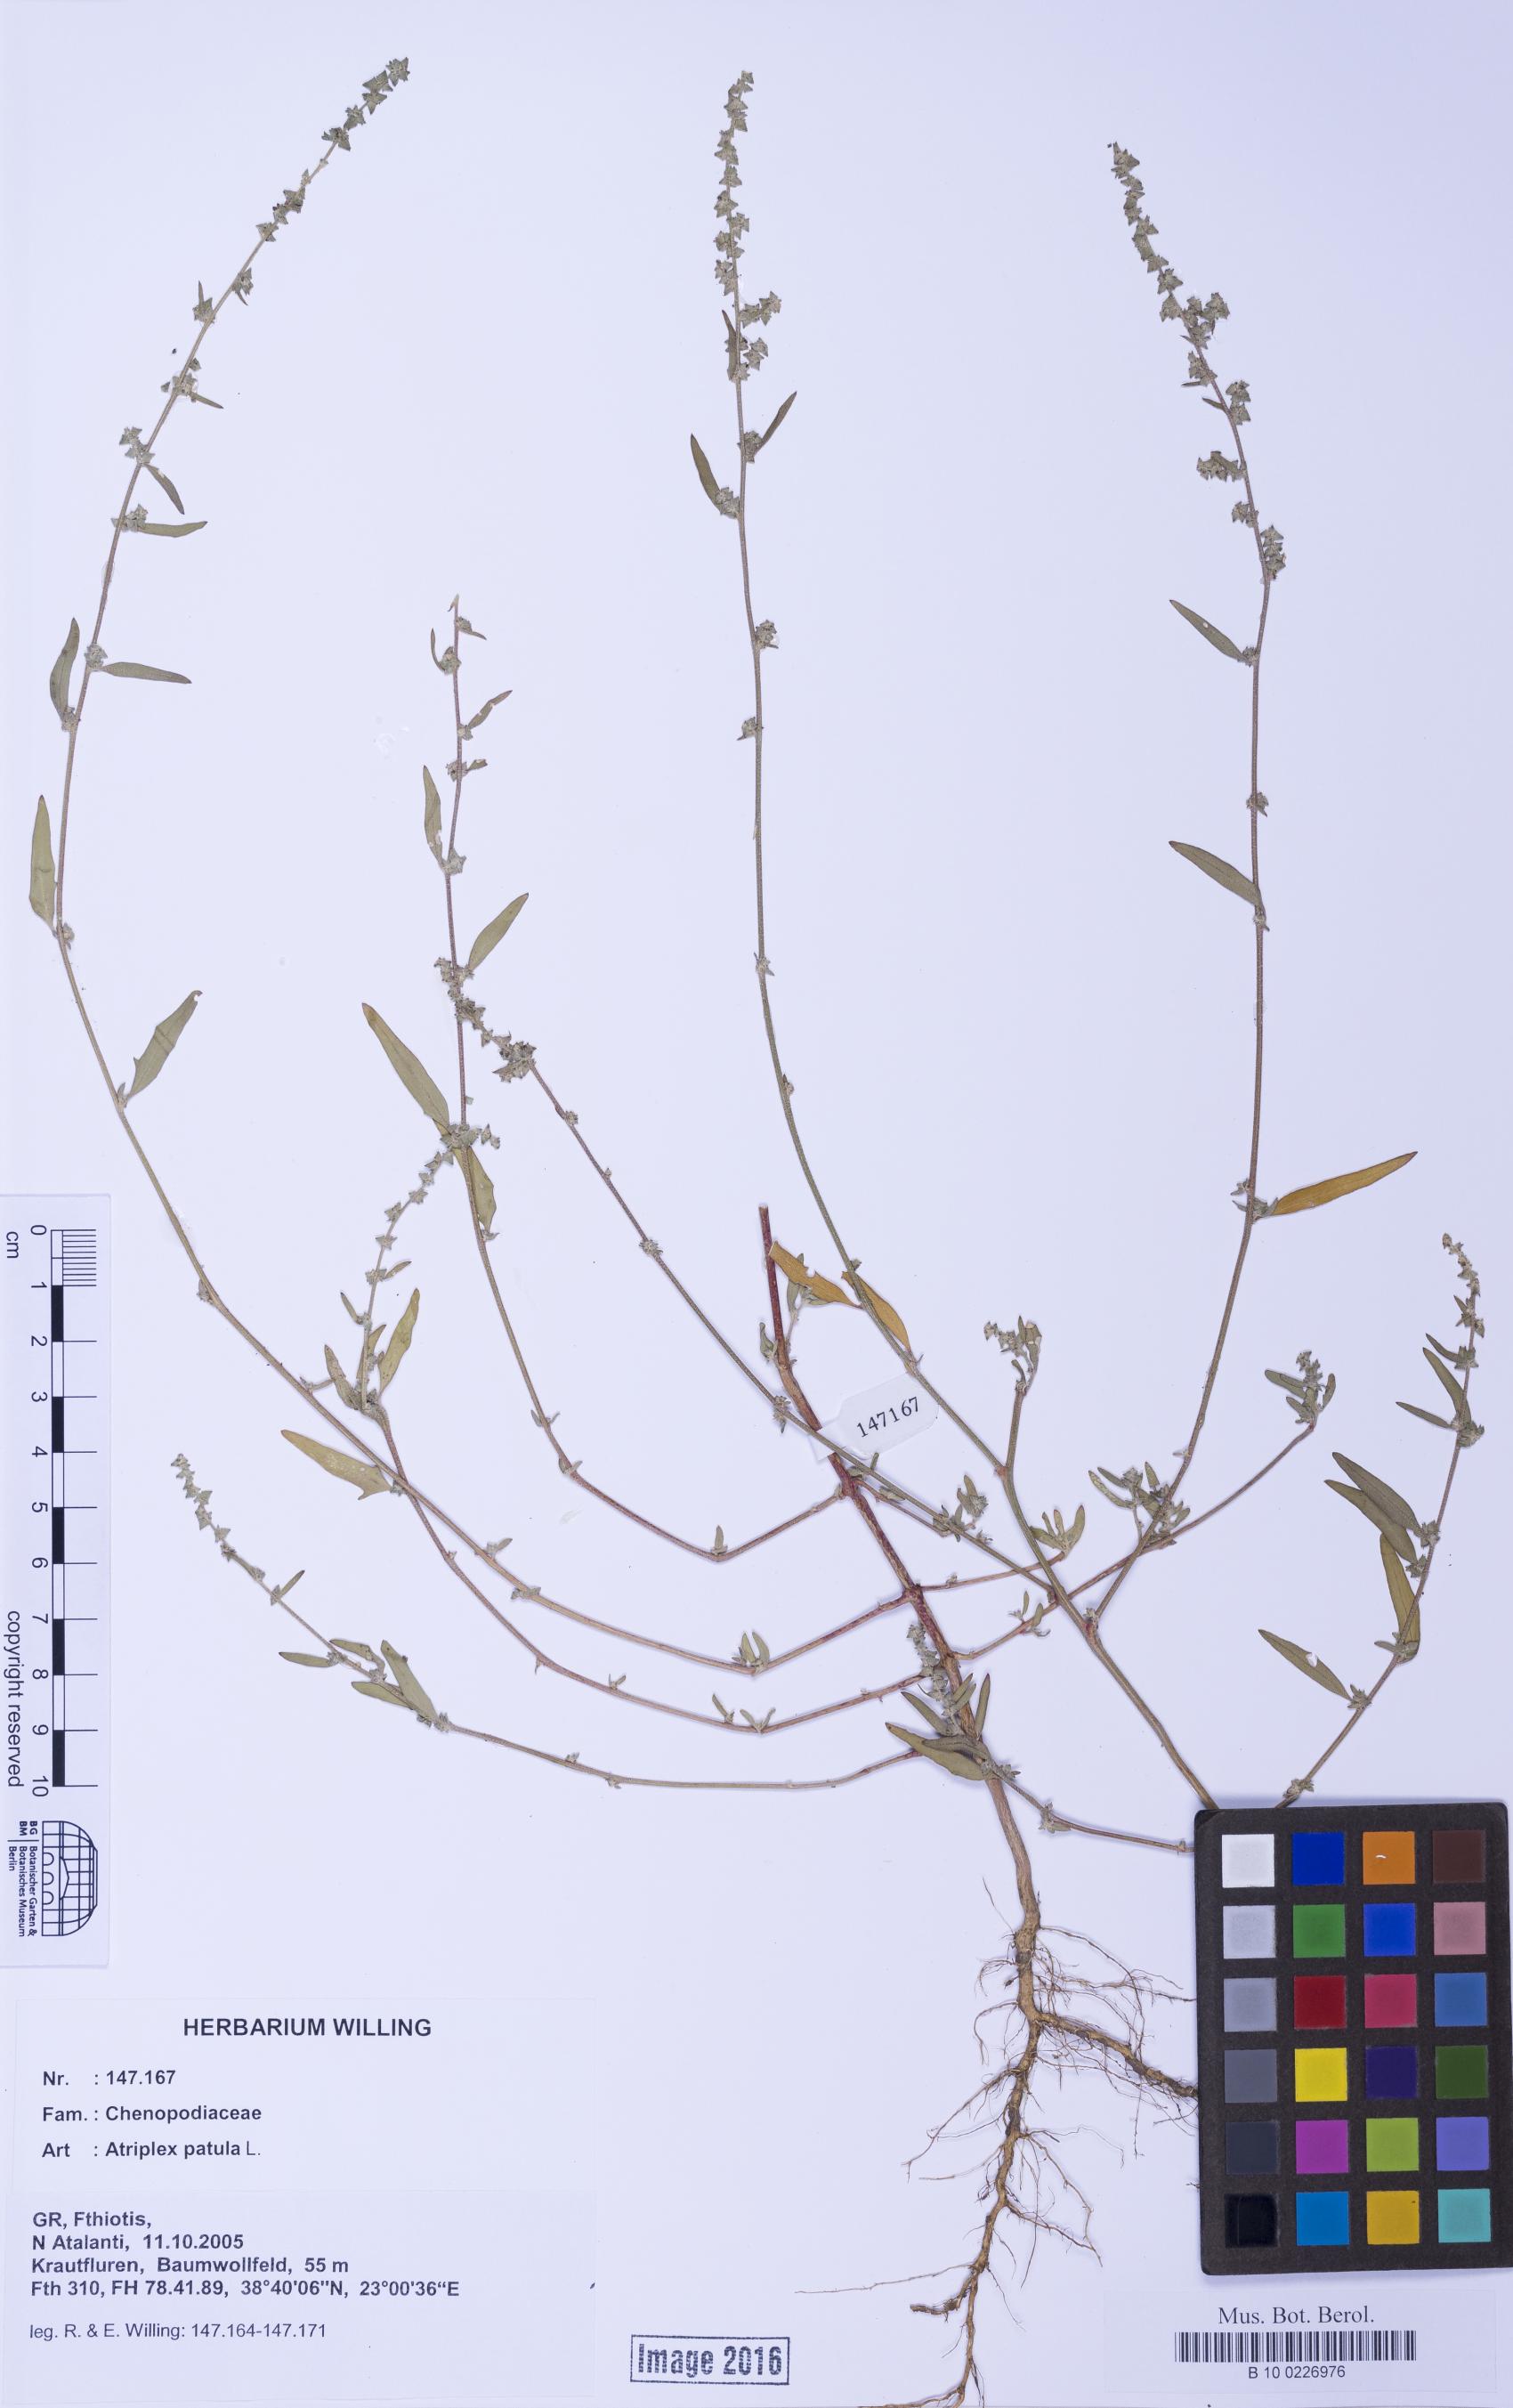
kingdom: Plantae
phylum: Tracheophyta
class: Magnoliopsida
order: Caryophyllales
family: Amaranthaceae
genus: Atriplex
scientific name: Atriplex patula
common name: Common orache
